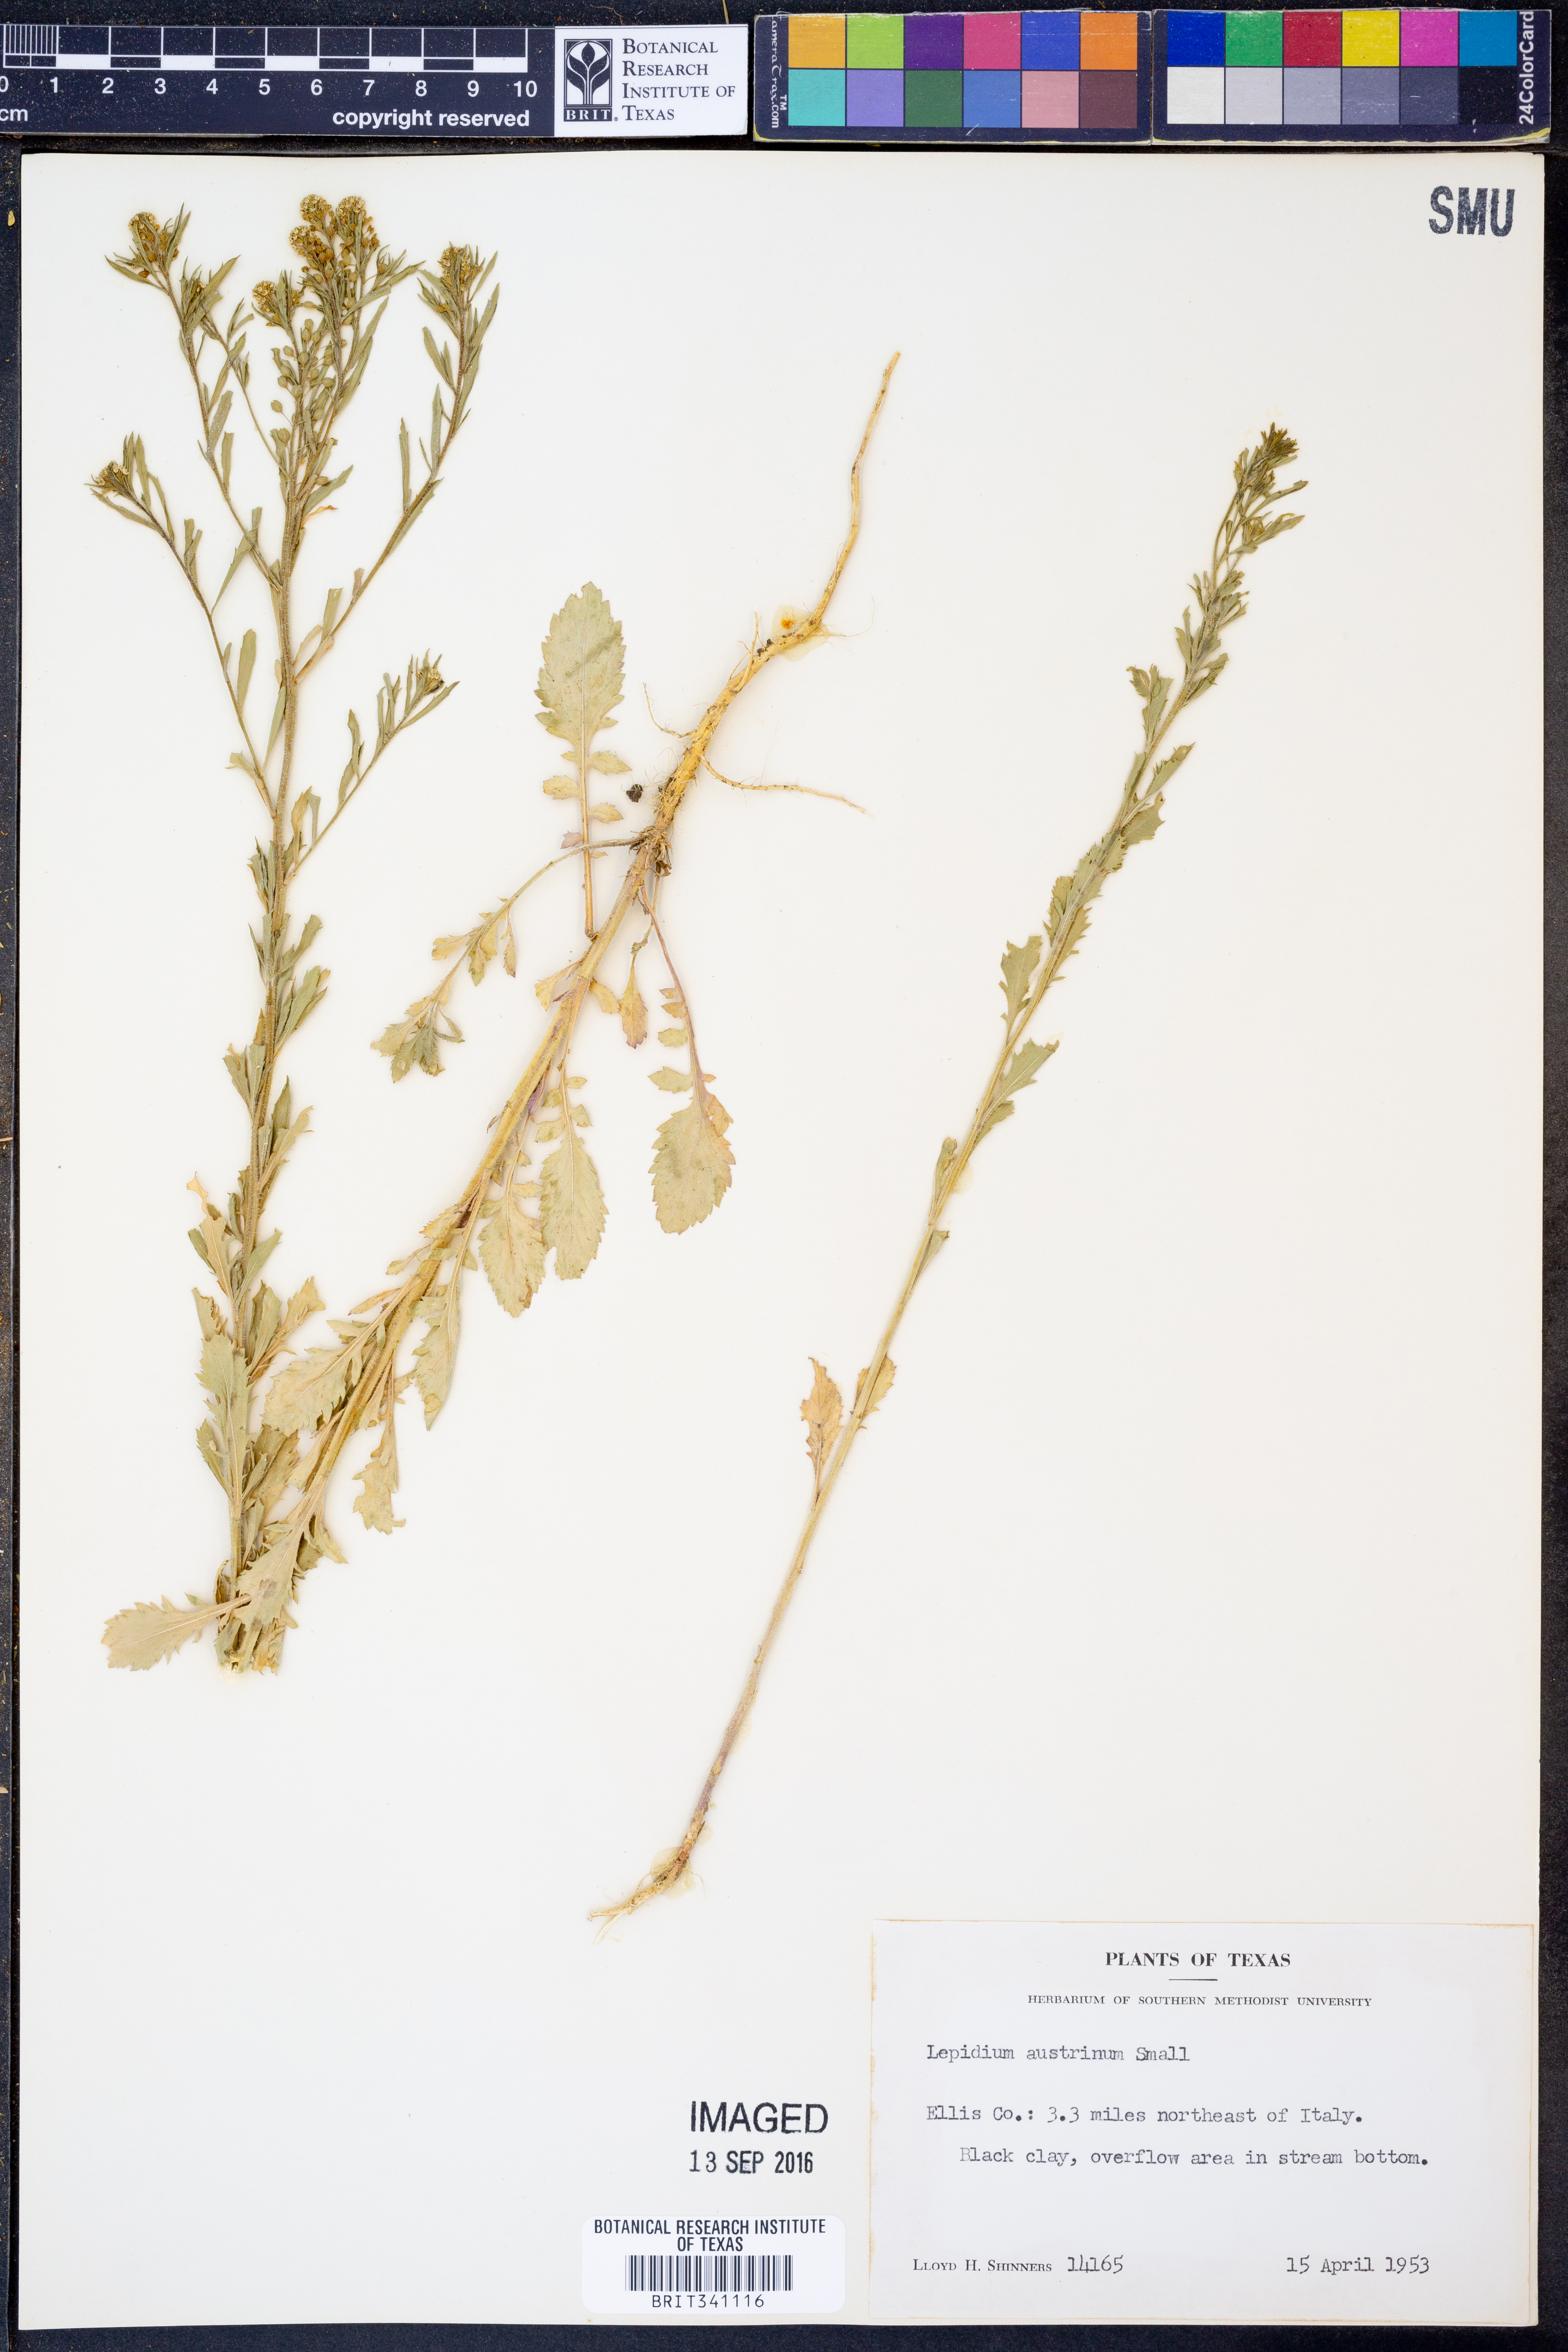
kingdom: Plantae
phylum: Tracheophyta
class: Magnoliopsida
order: Brassicales
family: Brassicaceae
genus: Lepidium
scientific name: Lepidium austrinum
